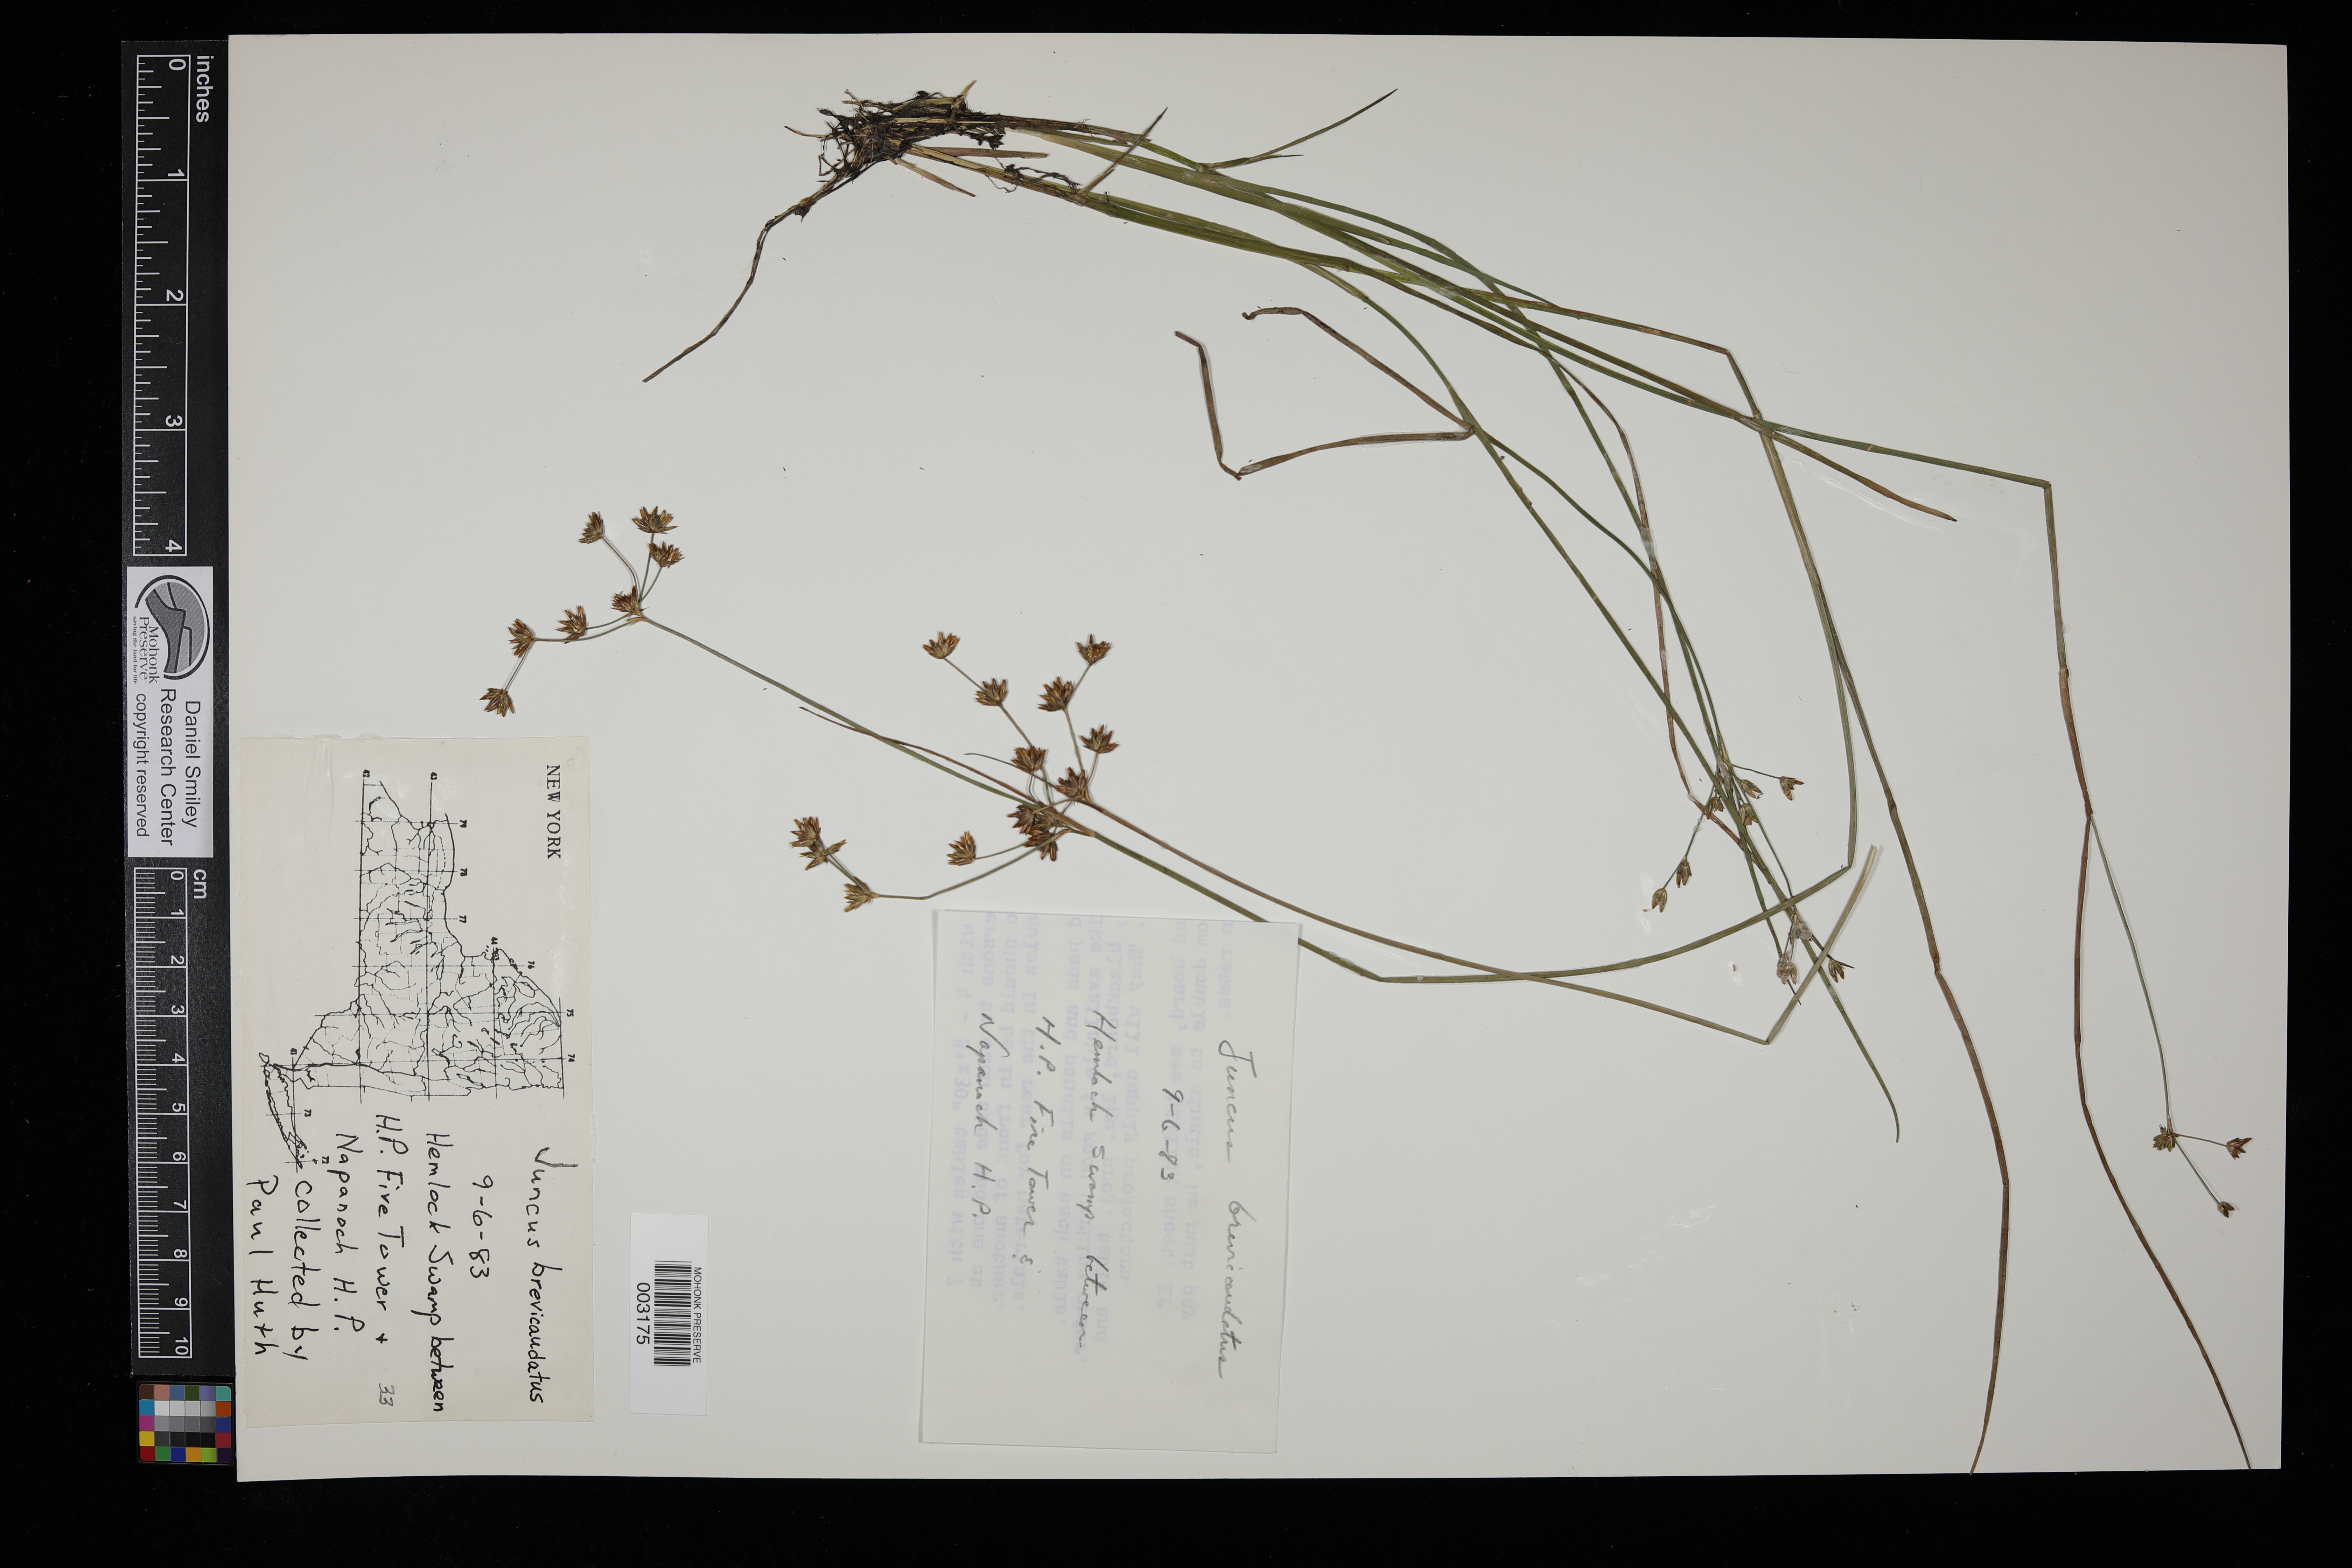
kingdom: Plantae
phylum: Tracheophyta
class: Liliopsida
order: Poales
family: Juncaceae
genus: Juncus
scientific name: Juncus brevicaudatus
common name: Narrow-panicle rush
